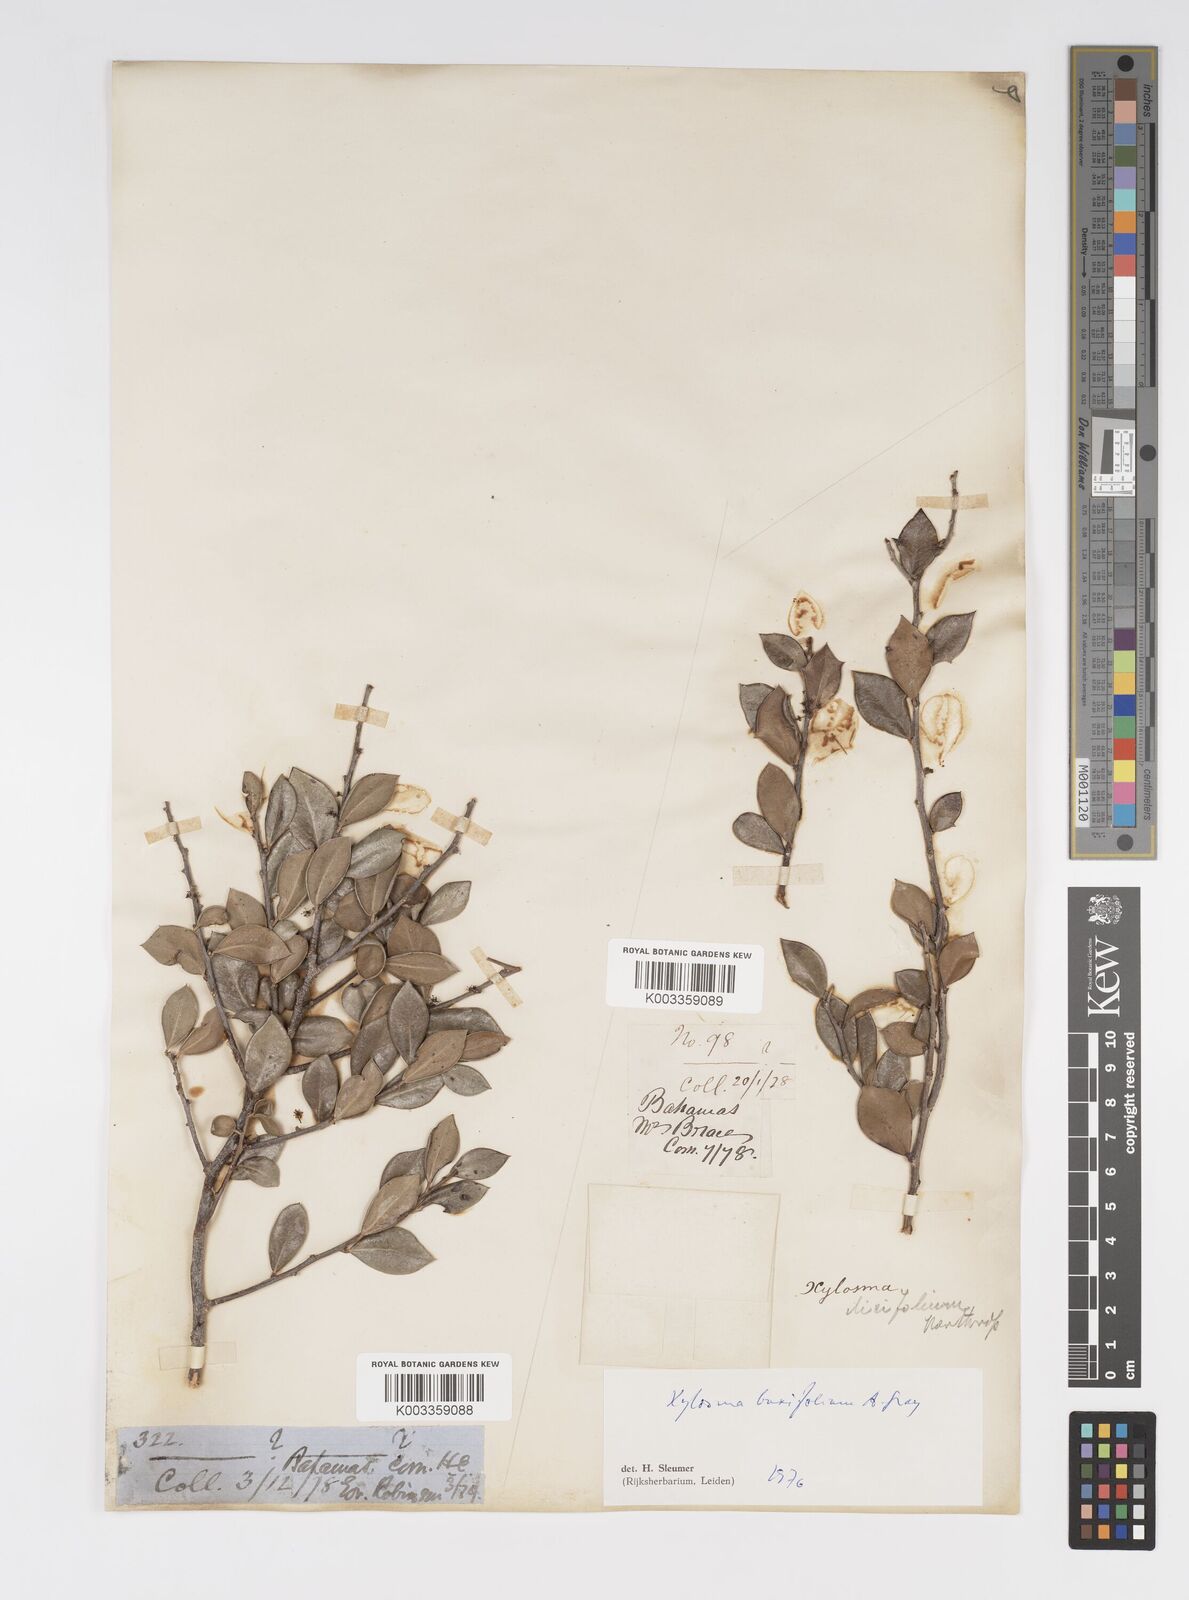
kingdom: Plantae
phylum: Tracheophyta
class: Magnoliopsida
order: Malpighiales
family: Salicaceae
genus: Xylosma
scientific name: Xylosma buxifolia
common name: Cockspur
